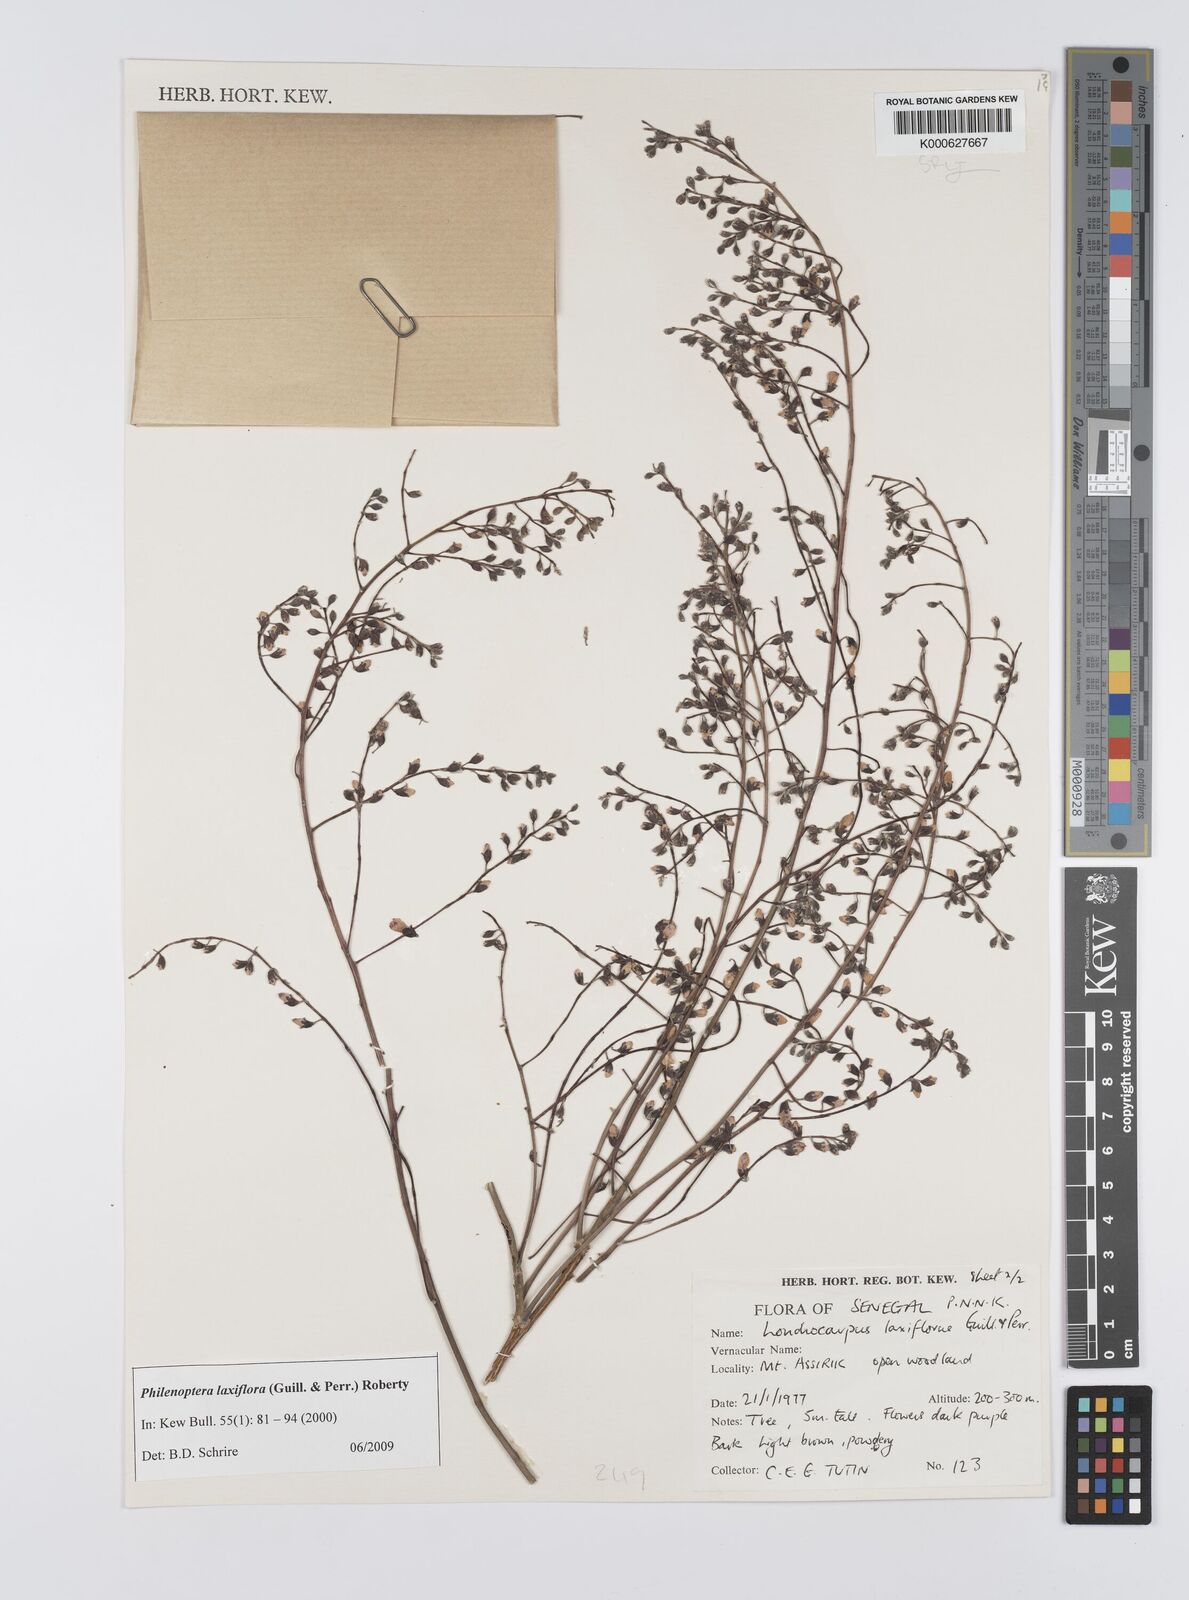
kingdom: Plantae
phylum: Tracheophyta
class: Magnoliopsida
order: Fabales
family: Fabaceae
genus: Philenoptera
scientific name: Philenoptera laxiflora
